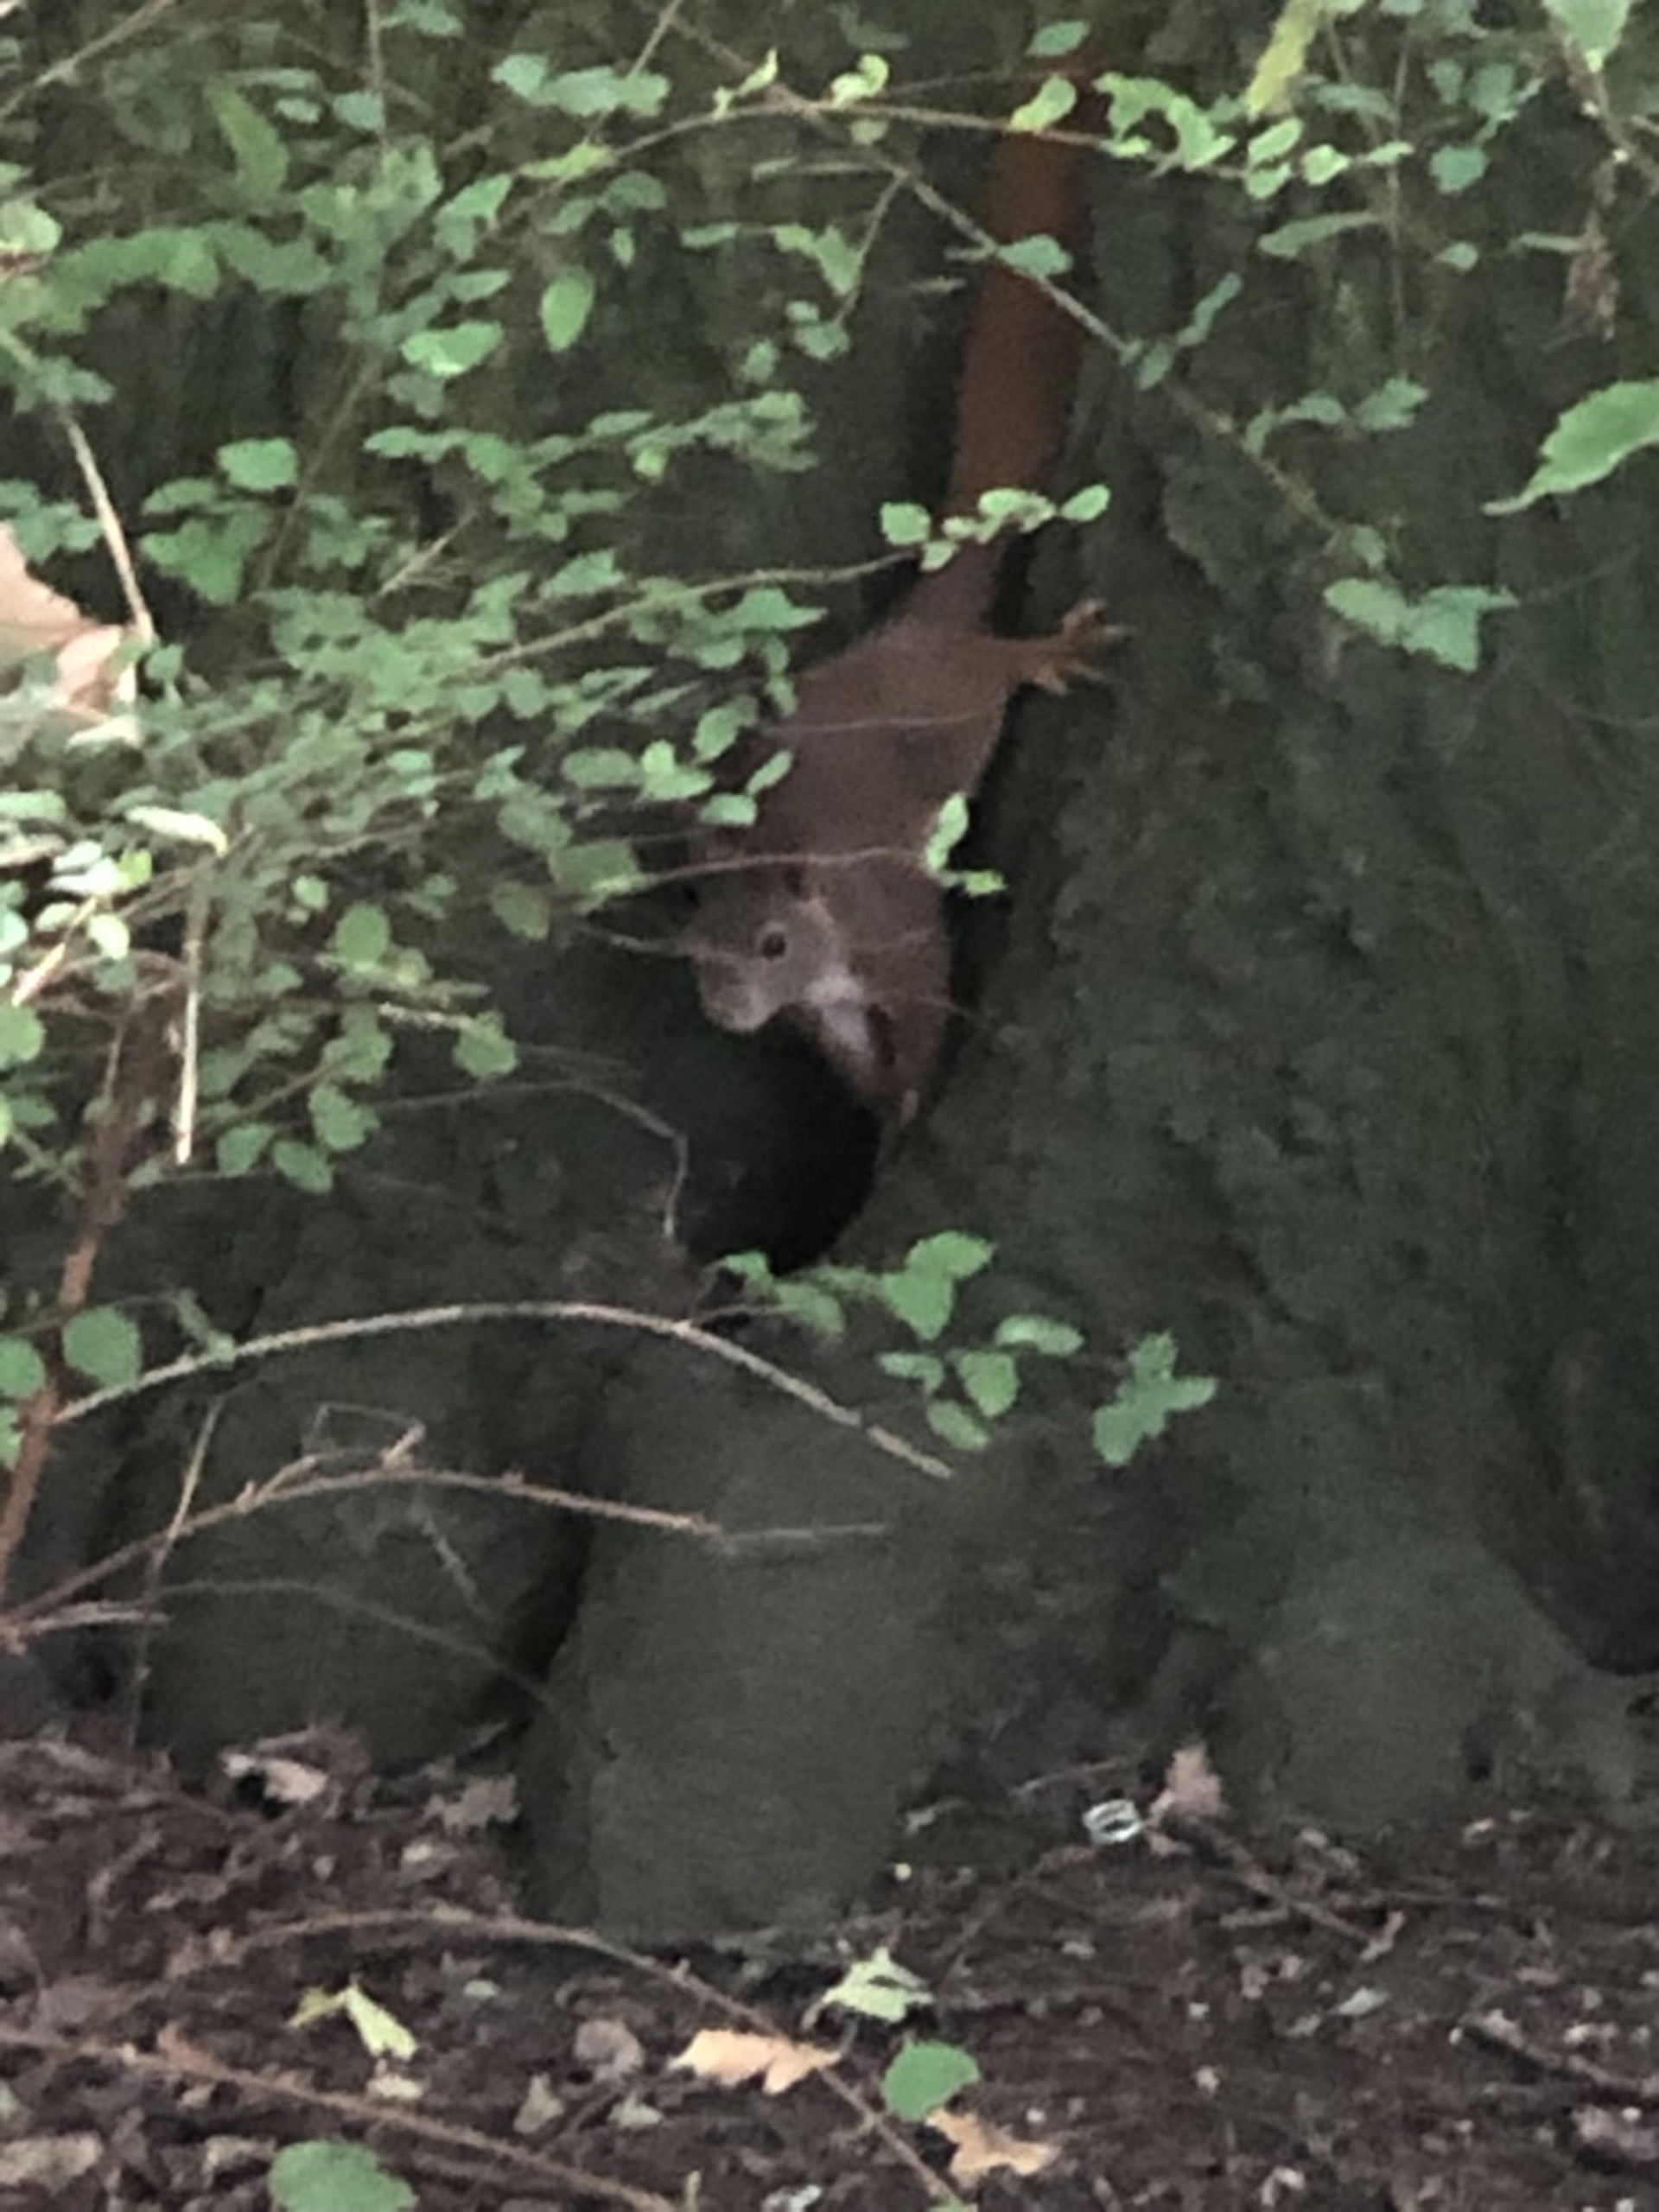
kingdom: Animalia
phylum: Chordata
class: Mammalia
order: Rodentia
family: Sciuridae
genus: Sciurus
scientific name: Sciurus vulgaris
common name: Egern
